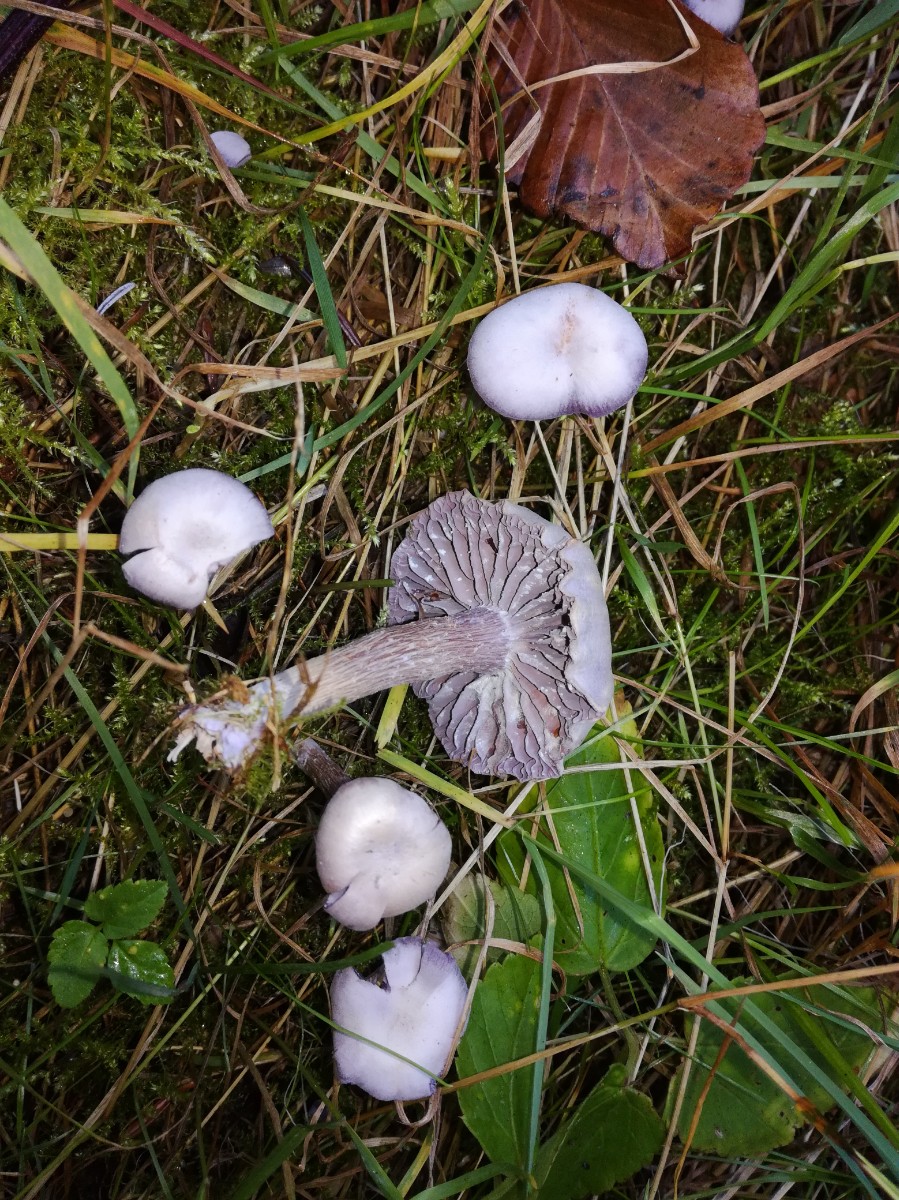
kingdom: Fungi
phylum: Basidiomycota
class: Agaricomycetes
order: Agaricales
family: Hydnangiaceae
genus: Laccaria
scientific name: Laccaria amethystina
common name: violet ametysthat
